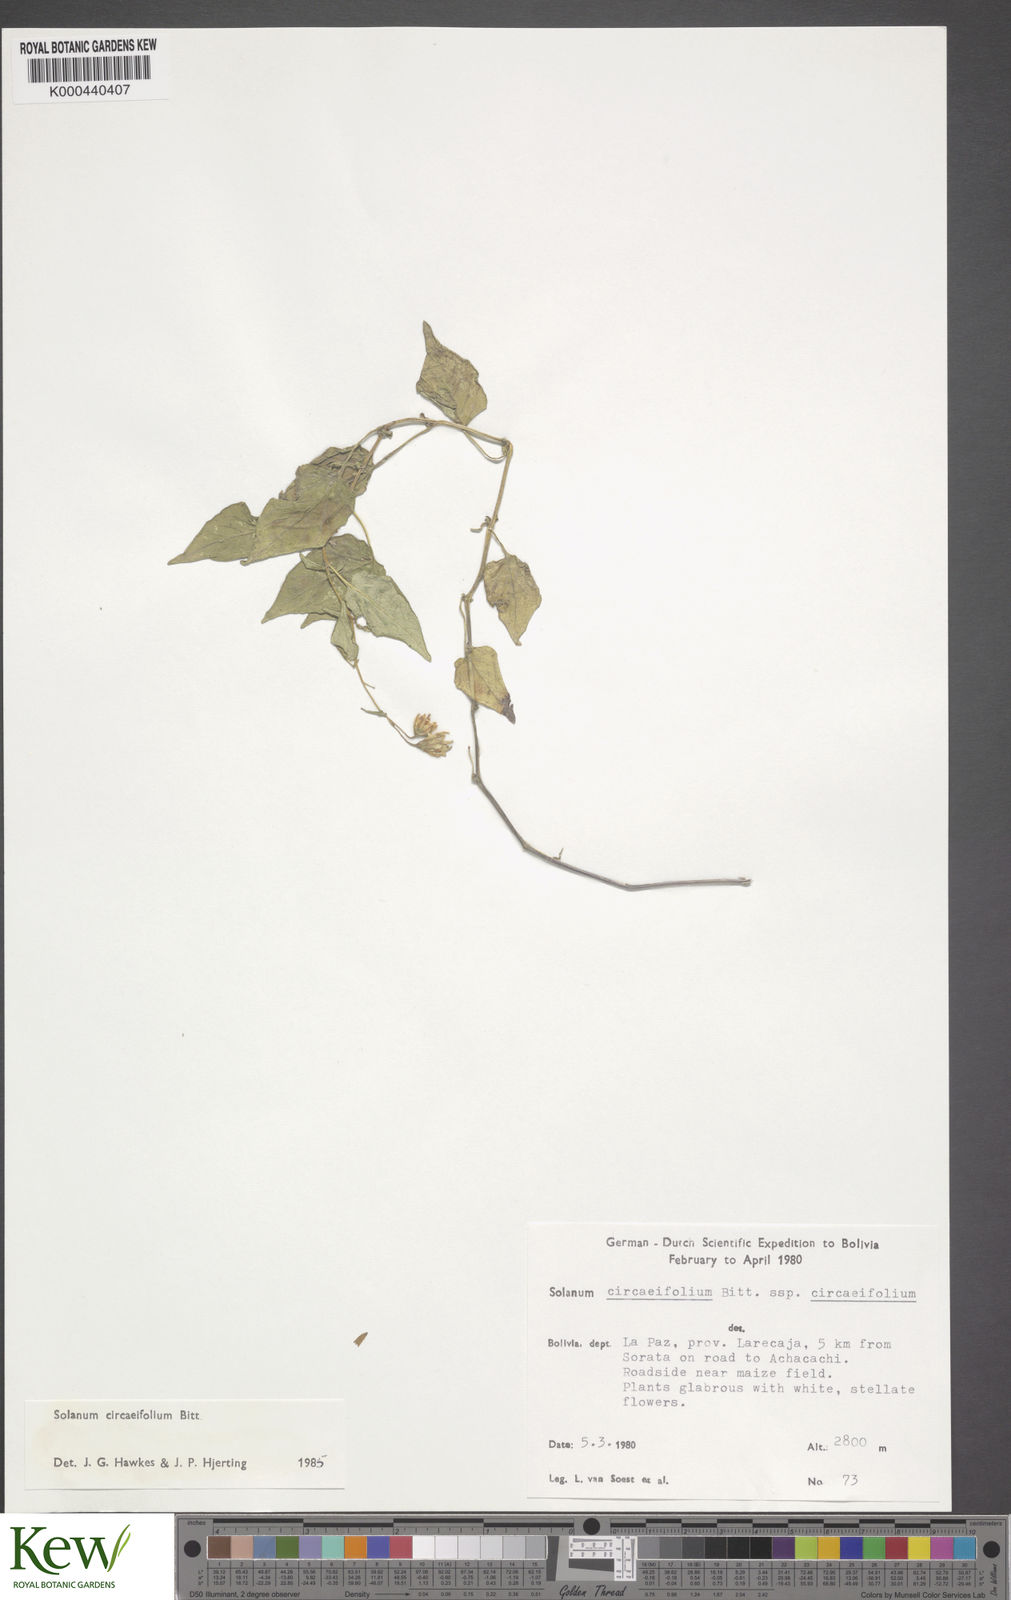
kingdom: Plantae
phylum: Tracheophyta
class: Magnoliopsida
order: Solanales
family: Solanaceae
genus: Solanum
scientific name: Solanum stipuloideum
